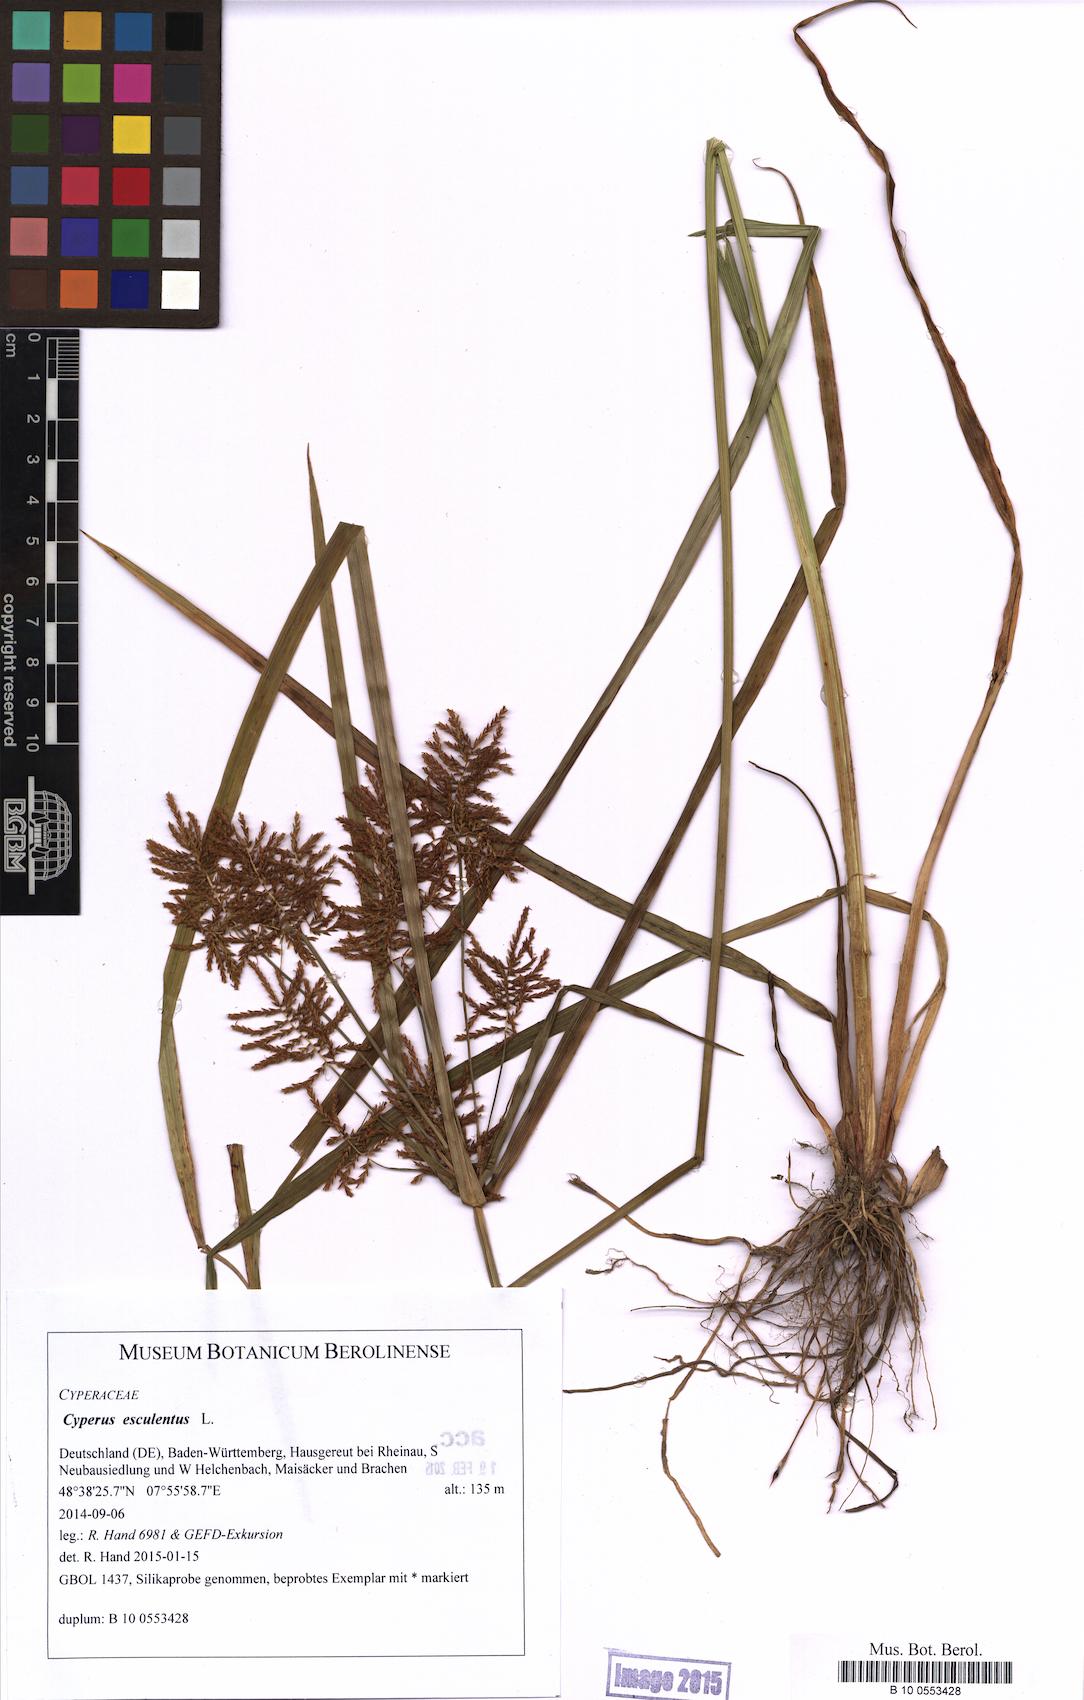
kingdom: Plantae
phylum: Tracheophyta
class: Liliopsida
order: Poales
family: Cyperaceae
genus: Cyperus
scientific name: Cyperus esculentus
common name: Yellow nutsedge
